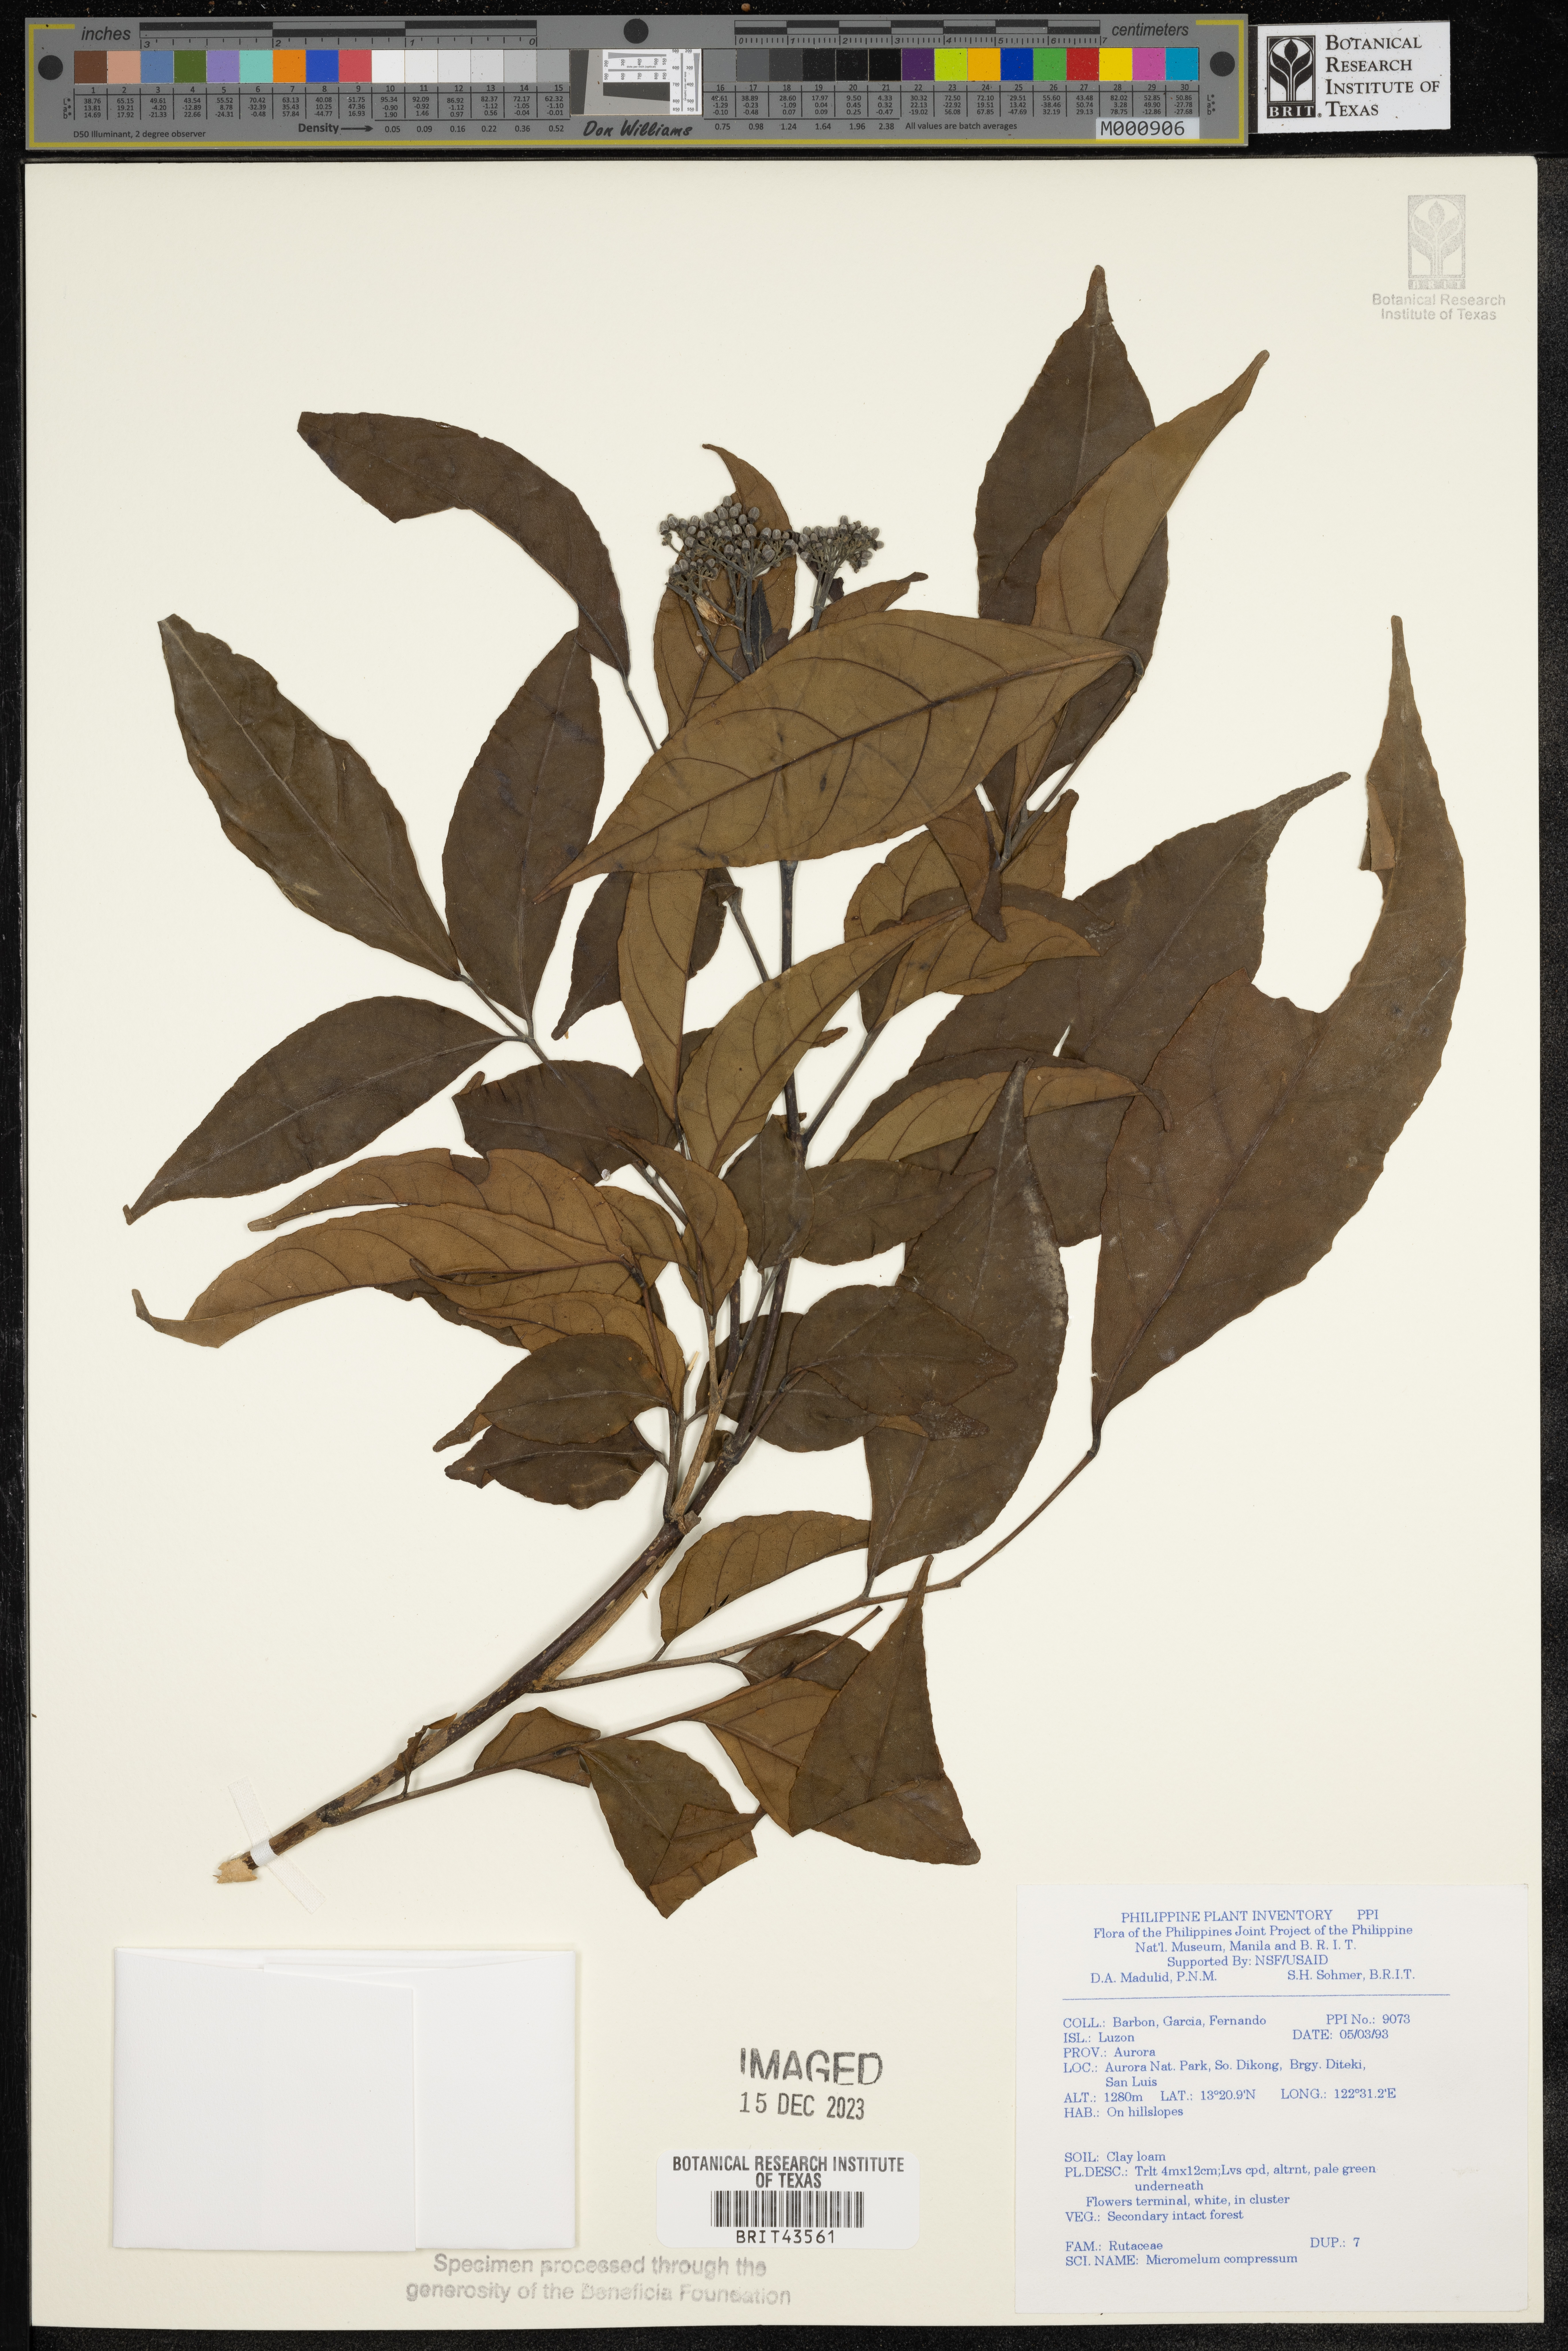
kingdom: Plantae
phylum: Tracheophyta
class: Magnoliopsida
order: Sapindales
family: Rutaceae
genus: Micromelum
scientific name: Micromelum compressum
